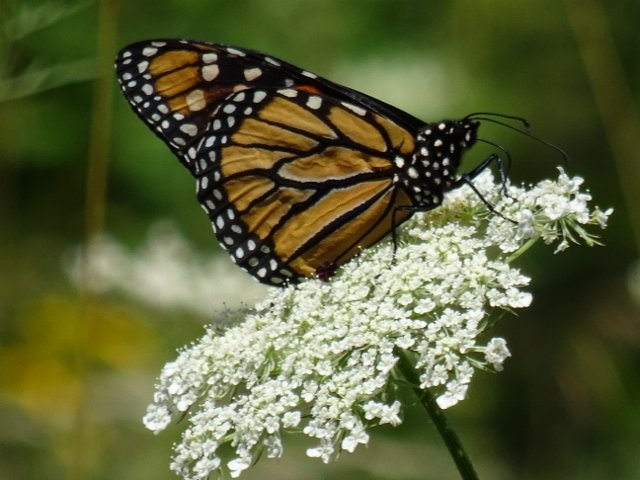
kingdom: Animalia
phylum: Arthropoda
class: Insecta
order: Lepidoptera
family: Nymphalidae
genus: Danaus
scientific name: Danaus plexippus
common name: Monarch
